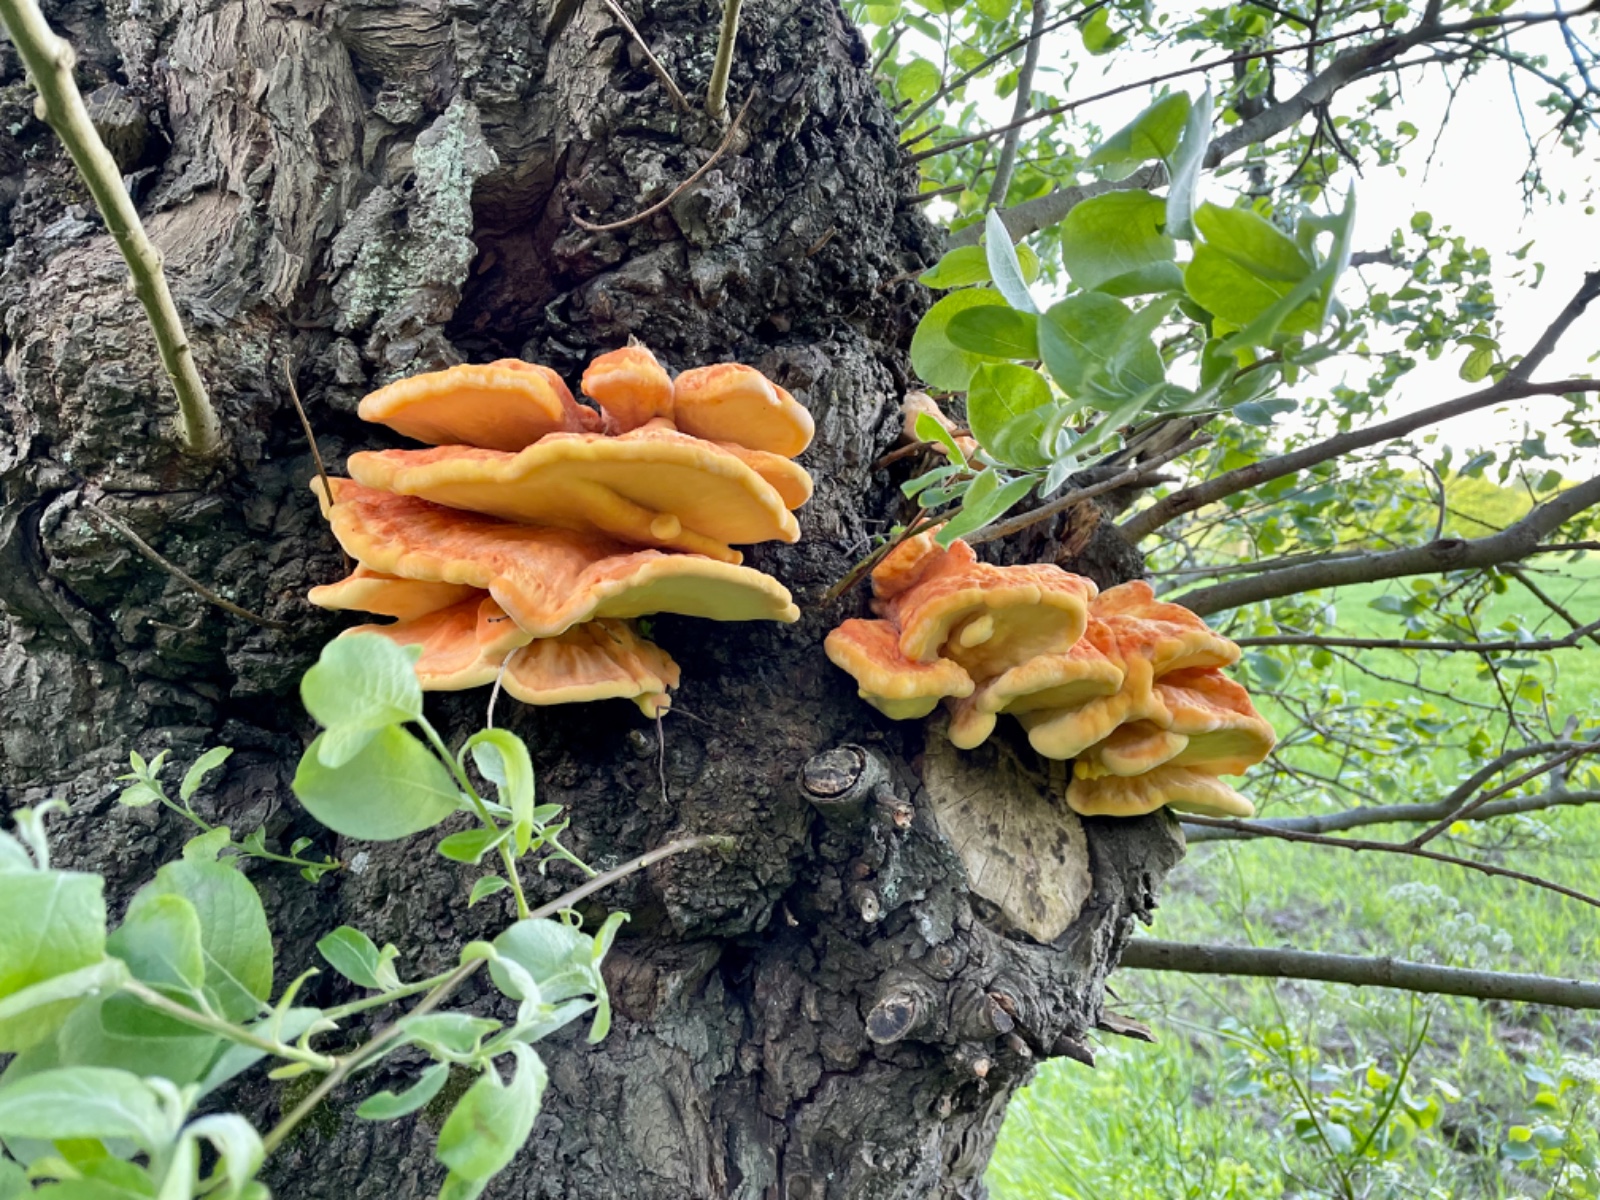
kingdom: Fungi
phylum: Basidiomycota
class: Agaricomycetes
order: Polyporales
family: Laetiporaceae
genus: Laetiporus
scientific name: Laetiporus sulphureus
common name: svovlporesvamp
